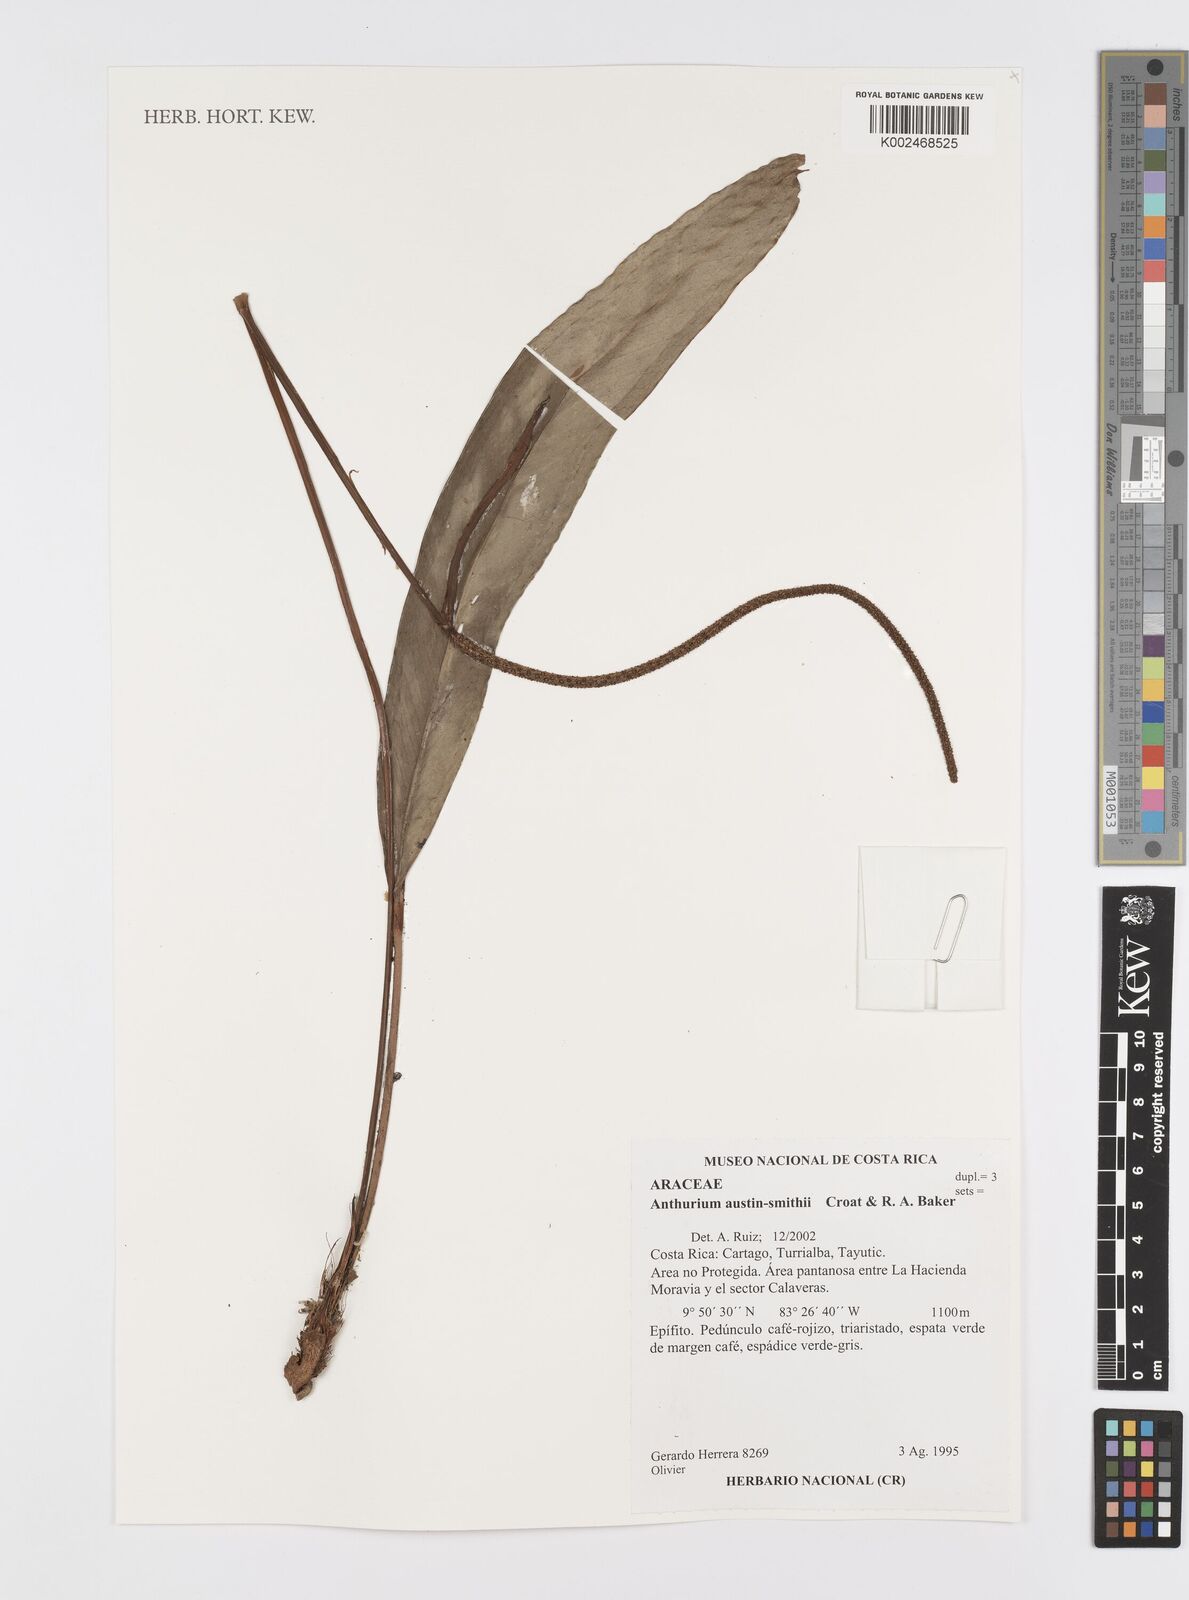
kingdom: Plantae
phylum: Tracheophyta
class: Liliopsida
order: Alismatales
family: Araceae
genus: Anthurium
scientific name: Anthurium austin-smithii
